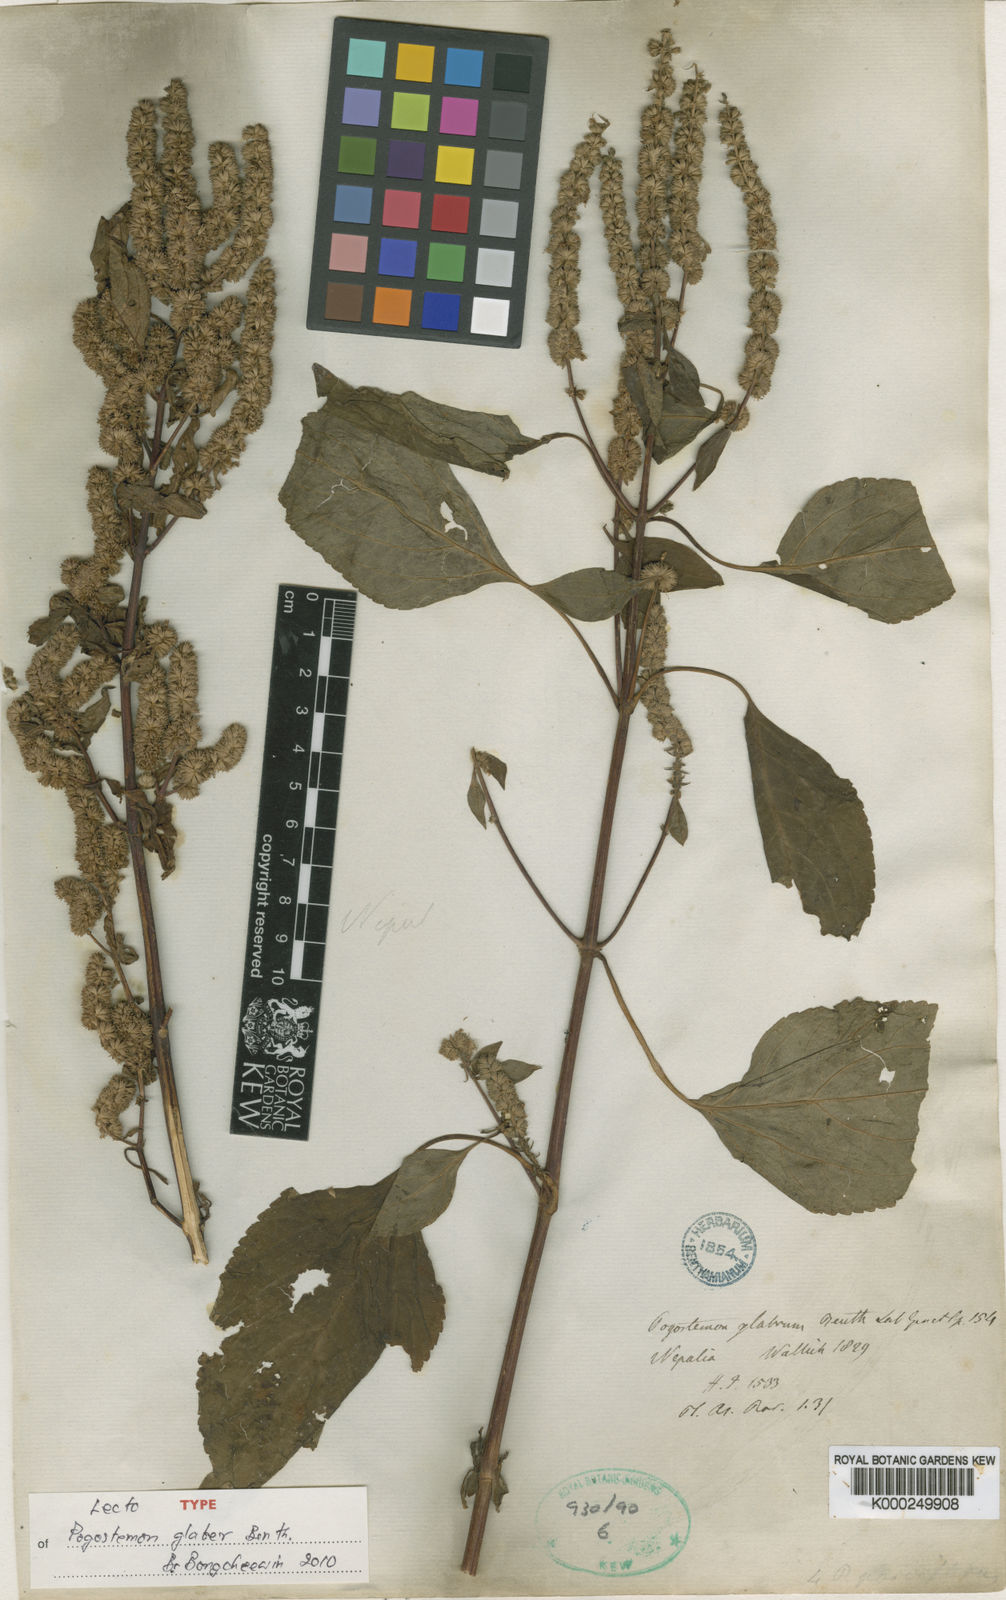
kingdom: Plantae
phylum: Tracheophyta
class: Magnoliopsida
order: Lamiales
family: Lamiaceae
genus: Pogostemon
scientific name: Pogostemon glaber
